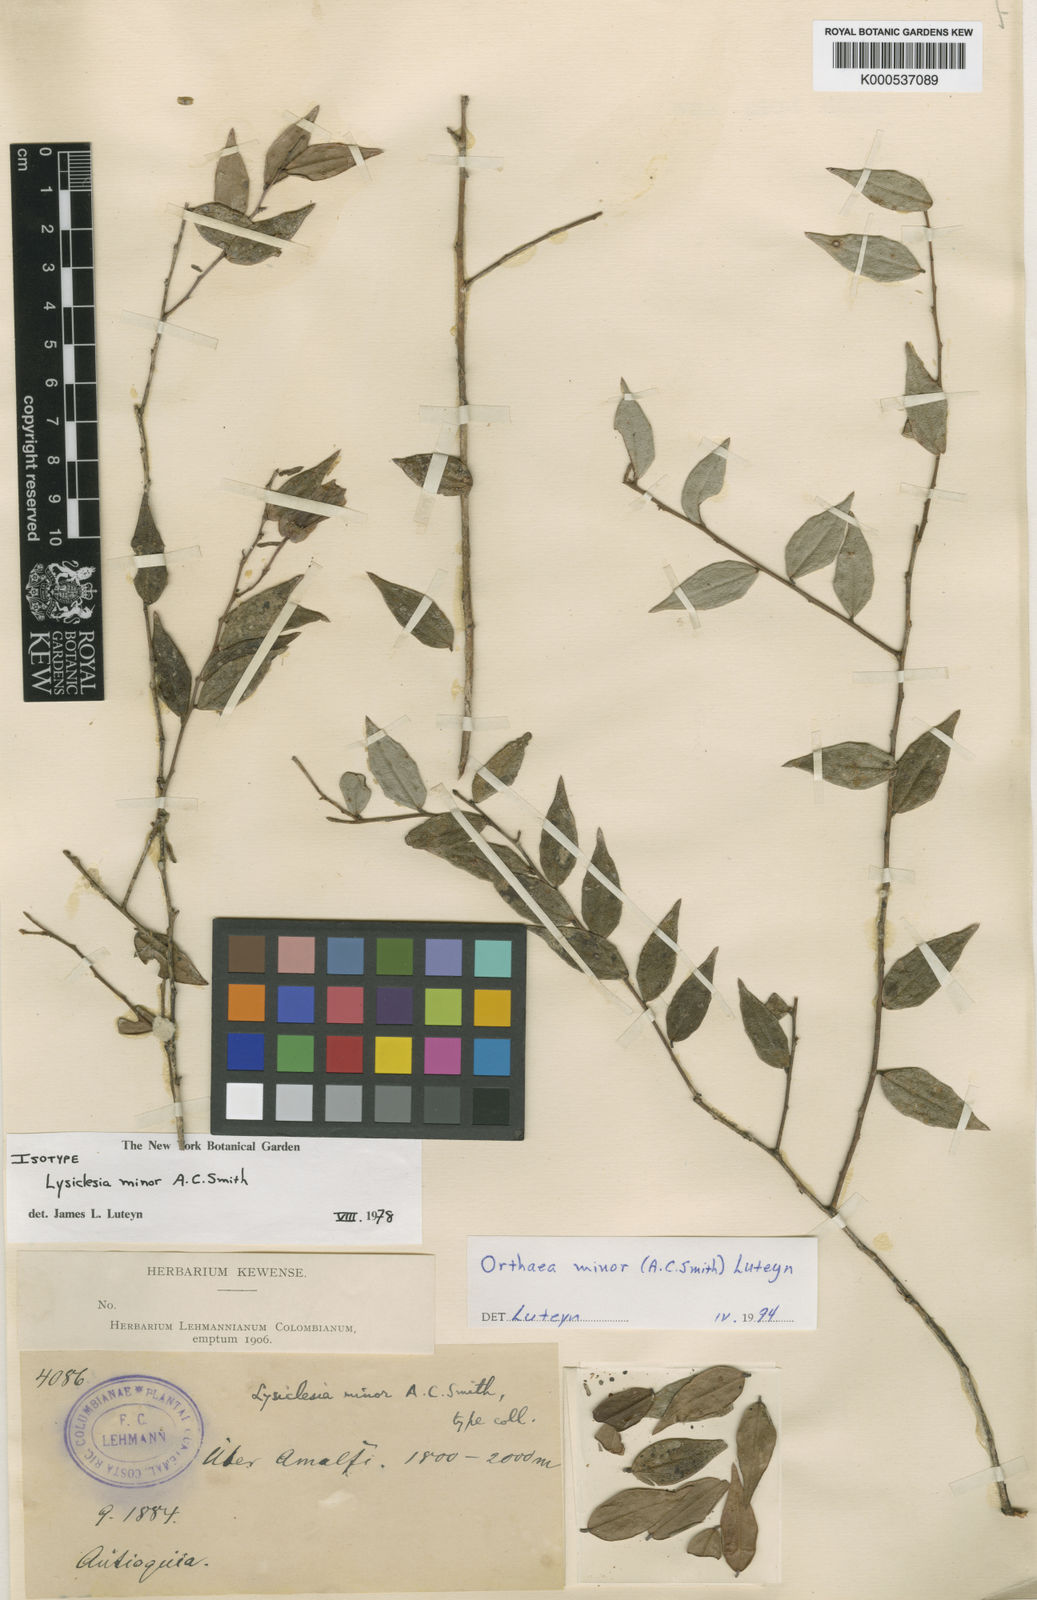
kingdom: Plantae
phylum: Tracheophyta
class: Magnoliopsida
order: Ericales
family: Ericaceae
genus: Orthaea
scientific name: Orthaea minor
